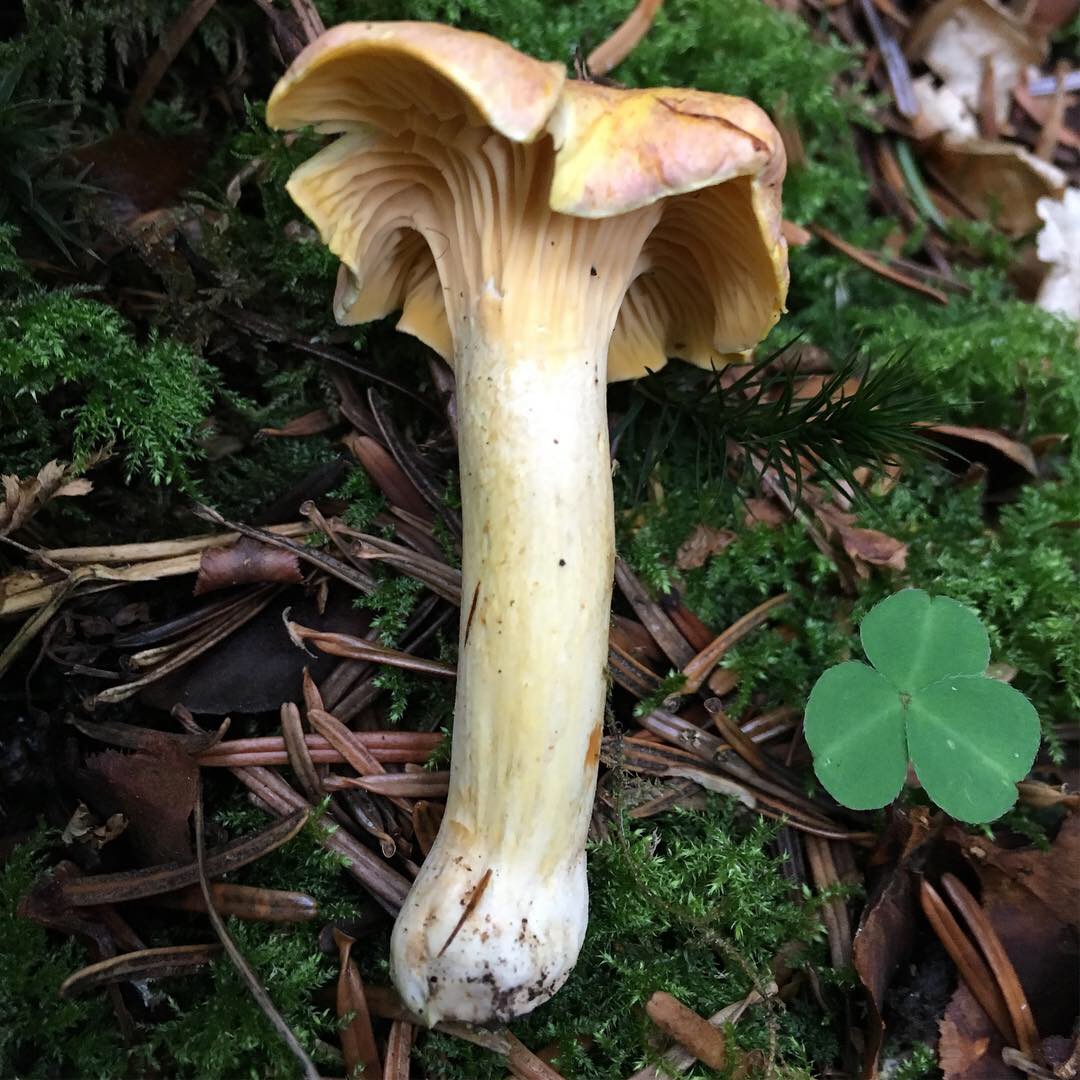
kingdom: Fungi
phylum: Basidiomycota
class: Agaricomycetes
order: Cantharellales
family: Hydnaceae
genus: Cantharellus
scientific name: Cantharellus amethysteus
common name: ametyst-kantarel
